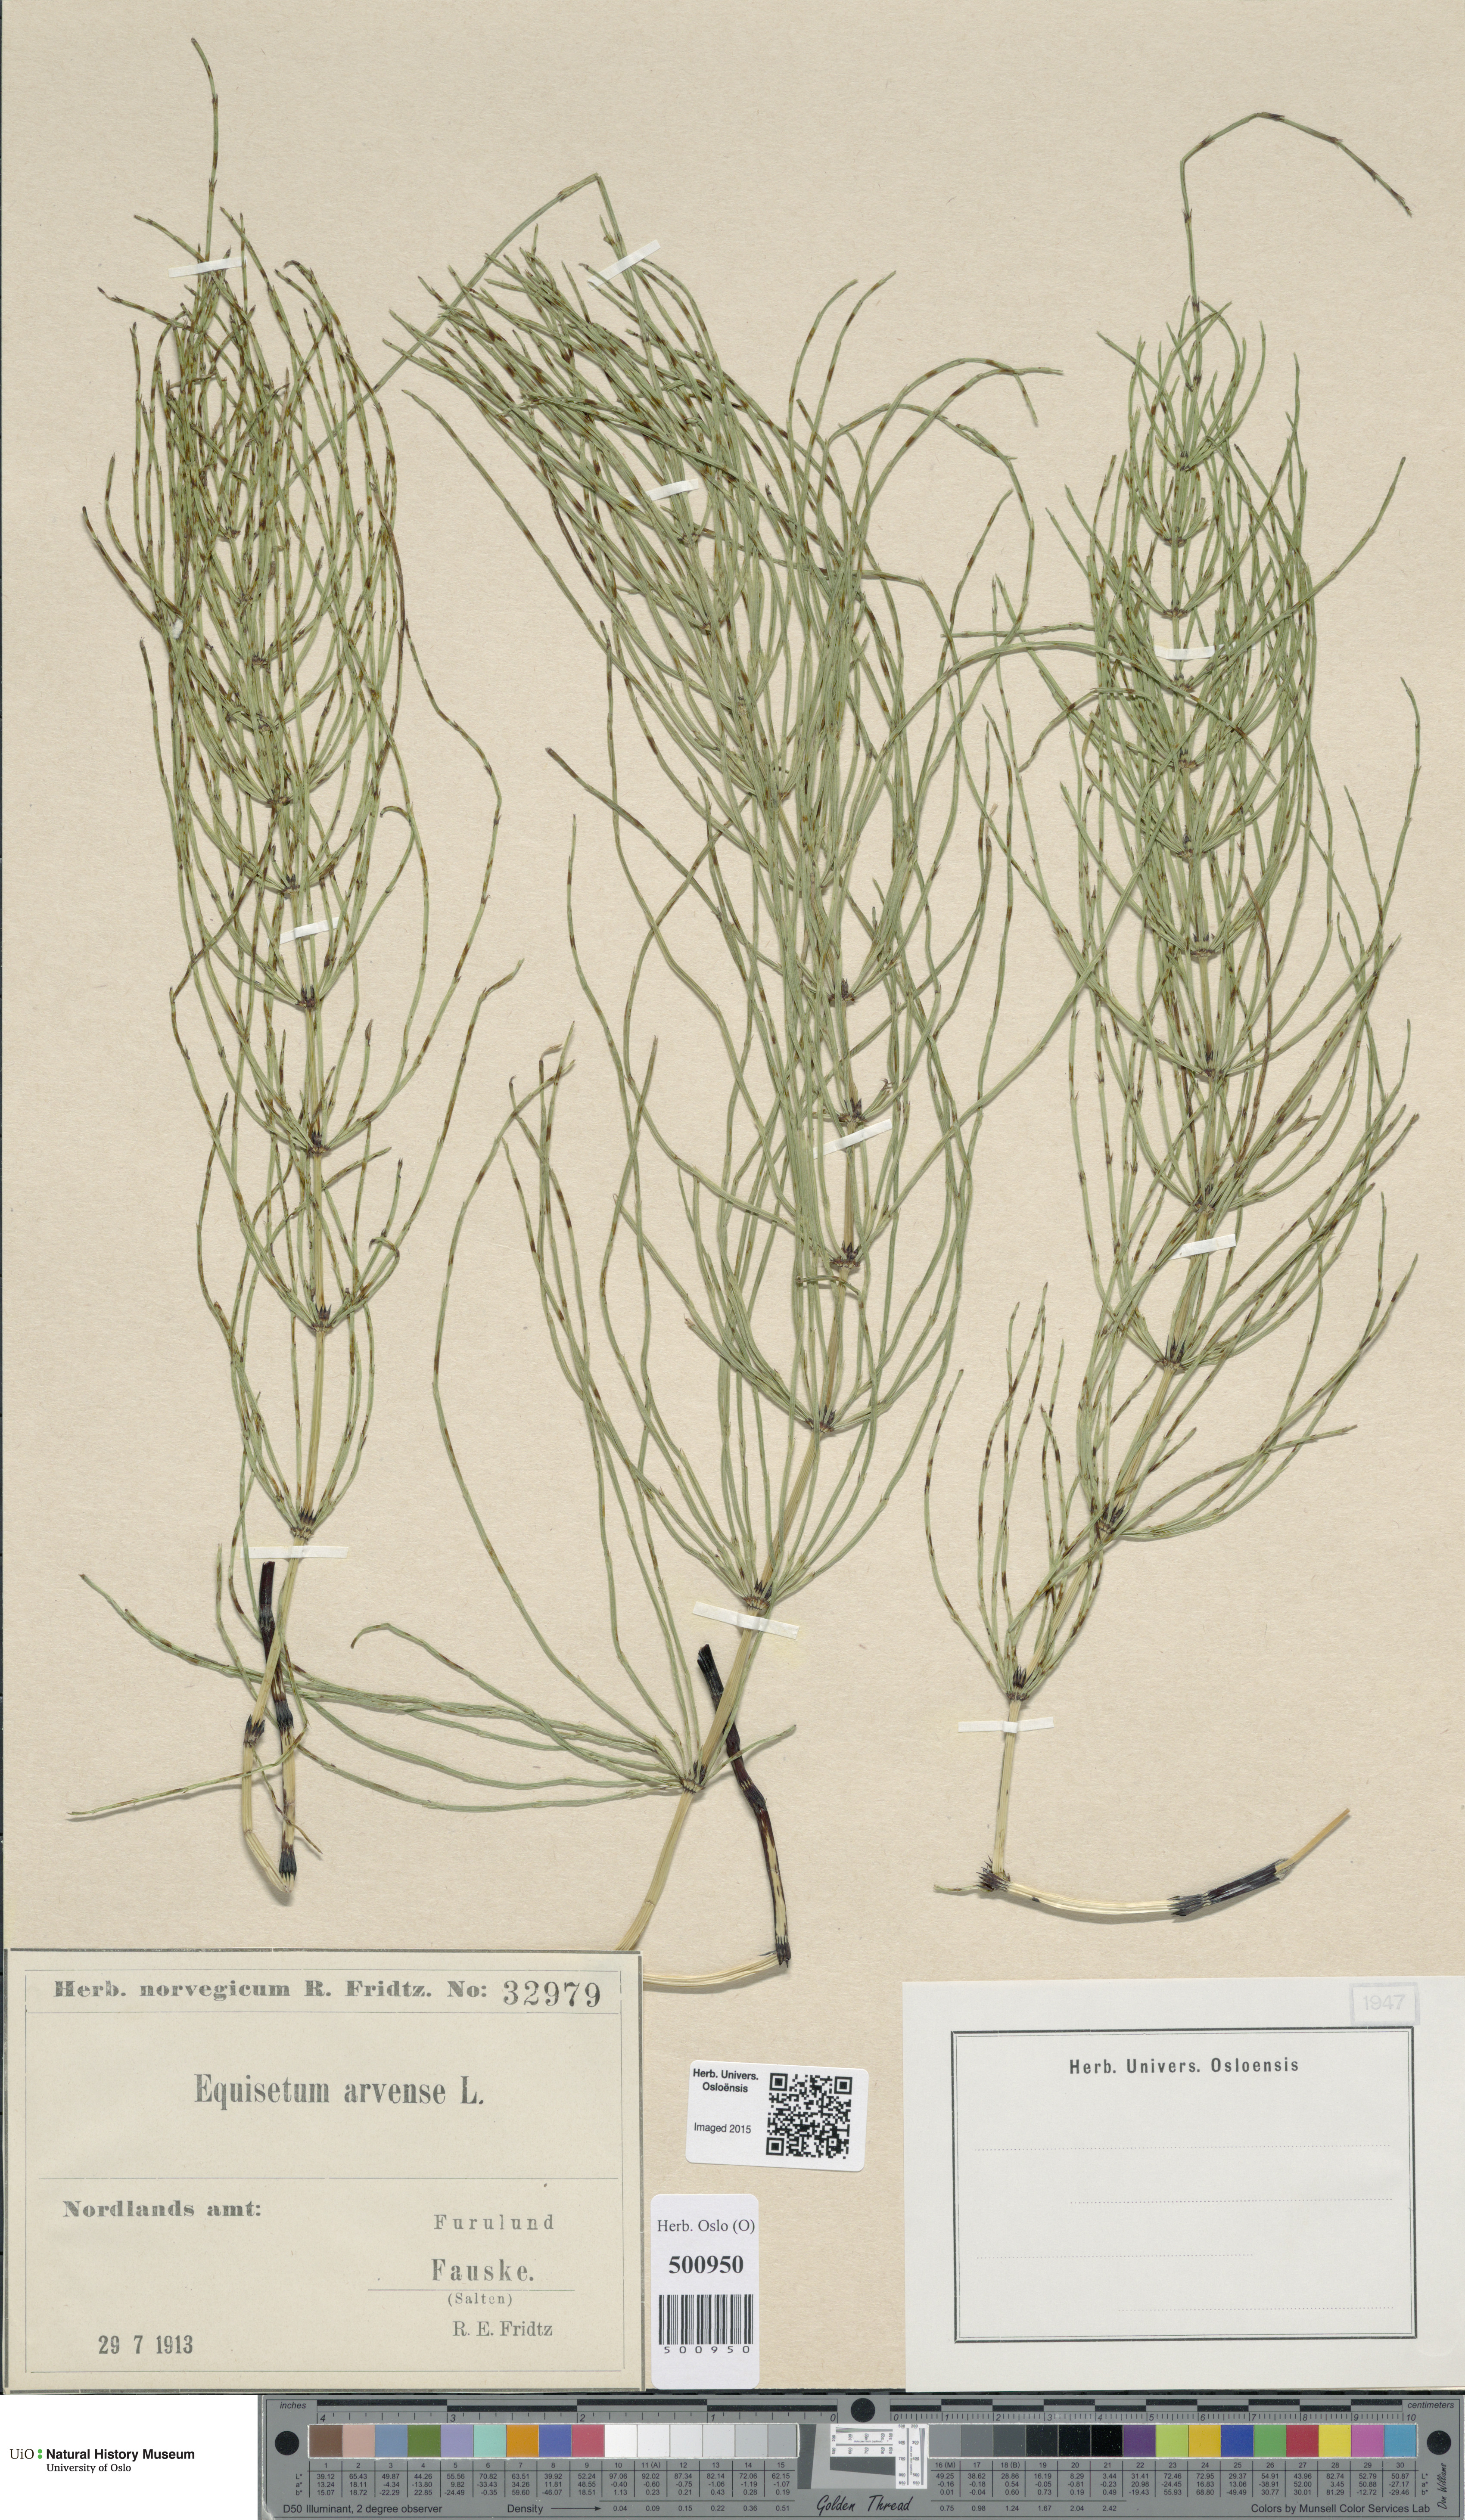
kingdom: Plantae
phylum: Tracheophyta
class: Polypodiopsida
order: Equisetales
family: Equisetaceae
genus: Equisetum
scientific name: Equisetum arvense
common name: Field horsetail
